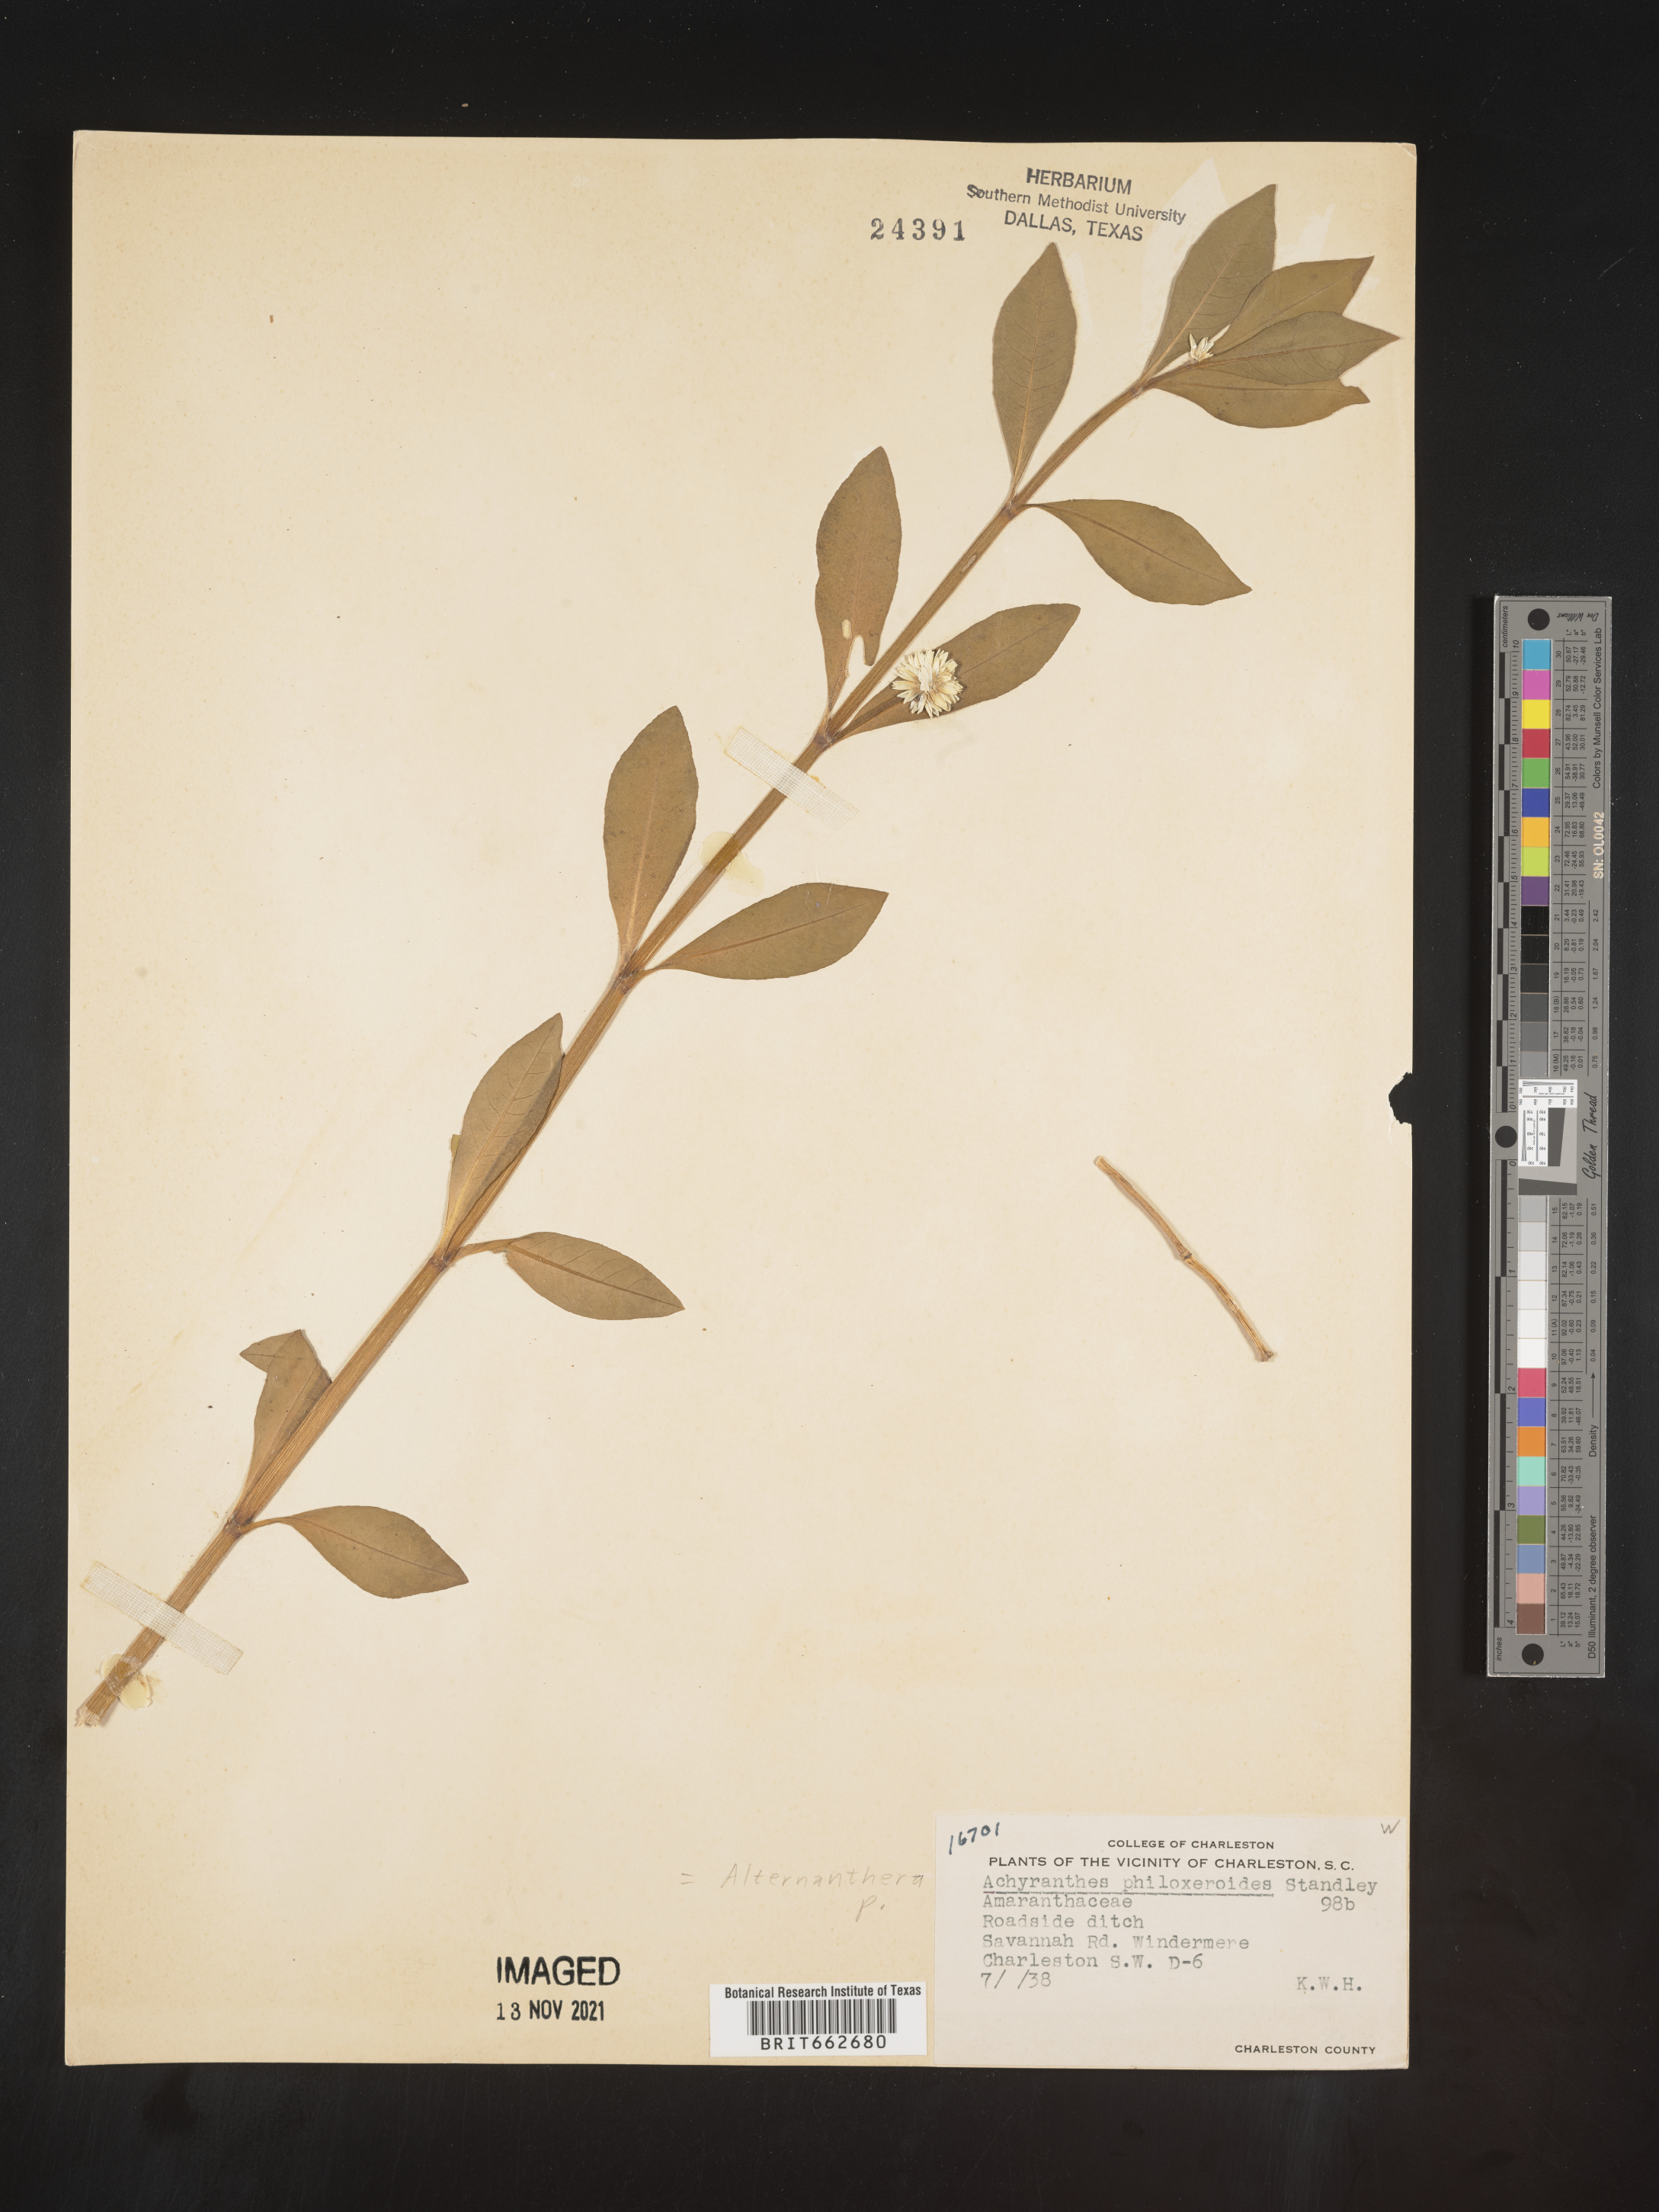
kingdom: Plantae
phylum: Tracheophyta
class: Magnoliopsida
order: Caryophyllales
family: Amaranthaceae
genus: Alternanthera
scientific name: Alternanthera philoxeroides
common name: Alligatorweed
